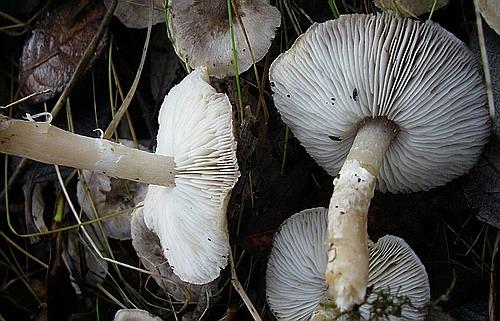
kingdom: Fungi
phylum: Basidiomycota
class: Agaricomycetes
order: Agaricales
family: Tricholomataceae
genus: Tricholoma
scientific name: Tricholoma cingulatum
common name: ring-ridderhat
